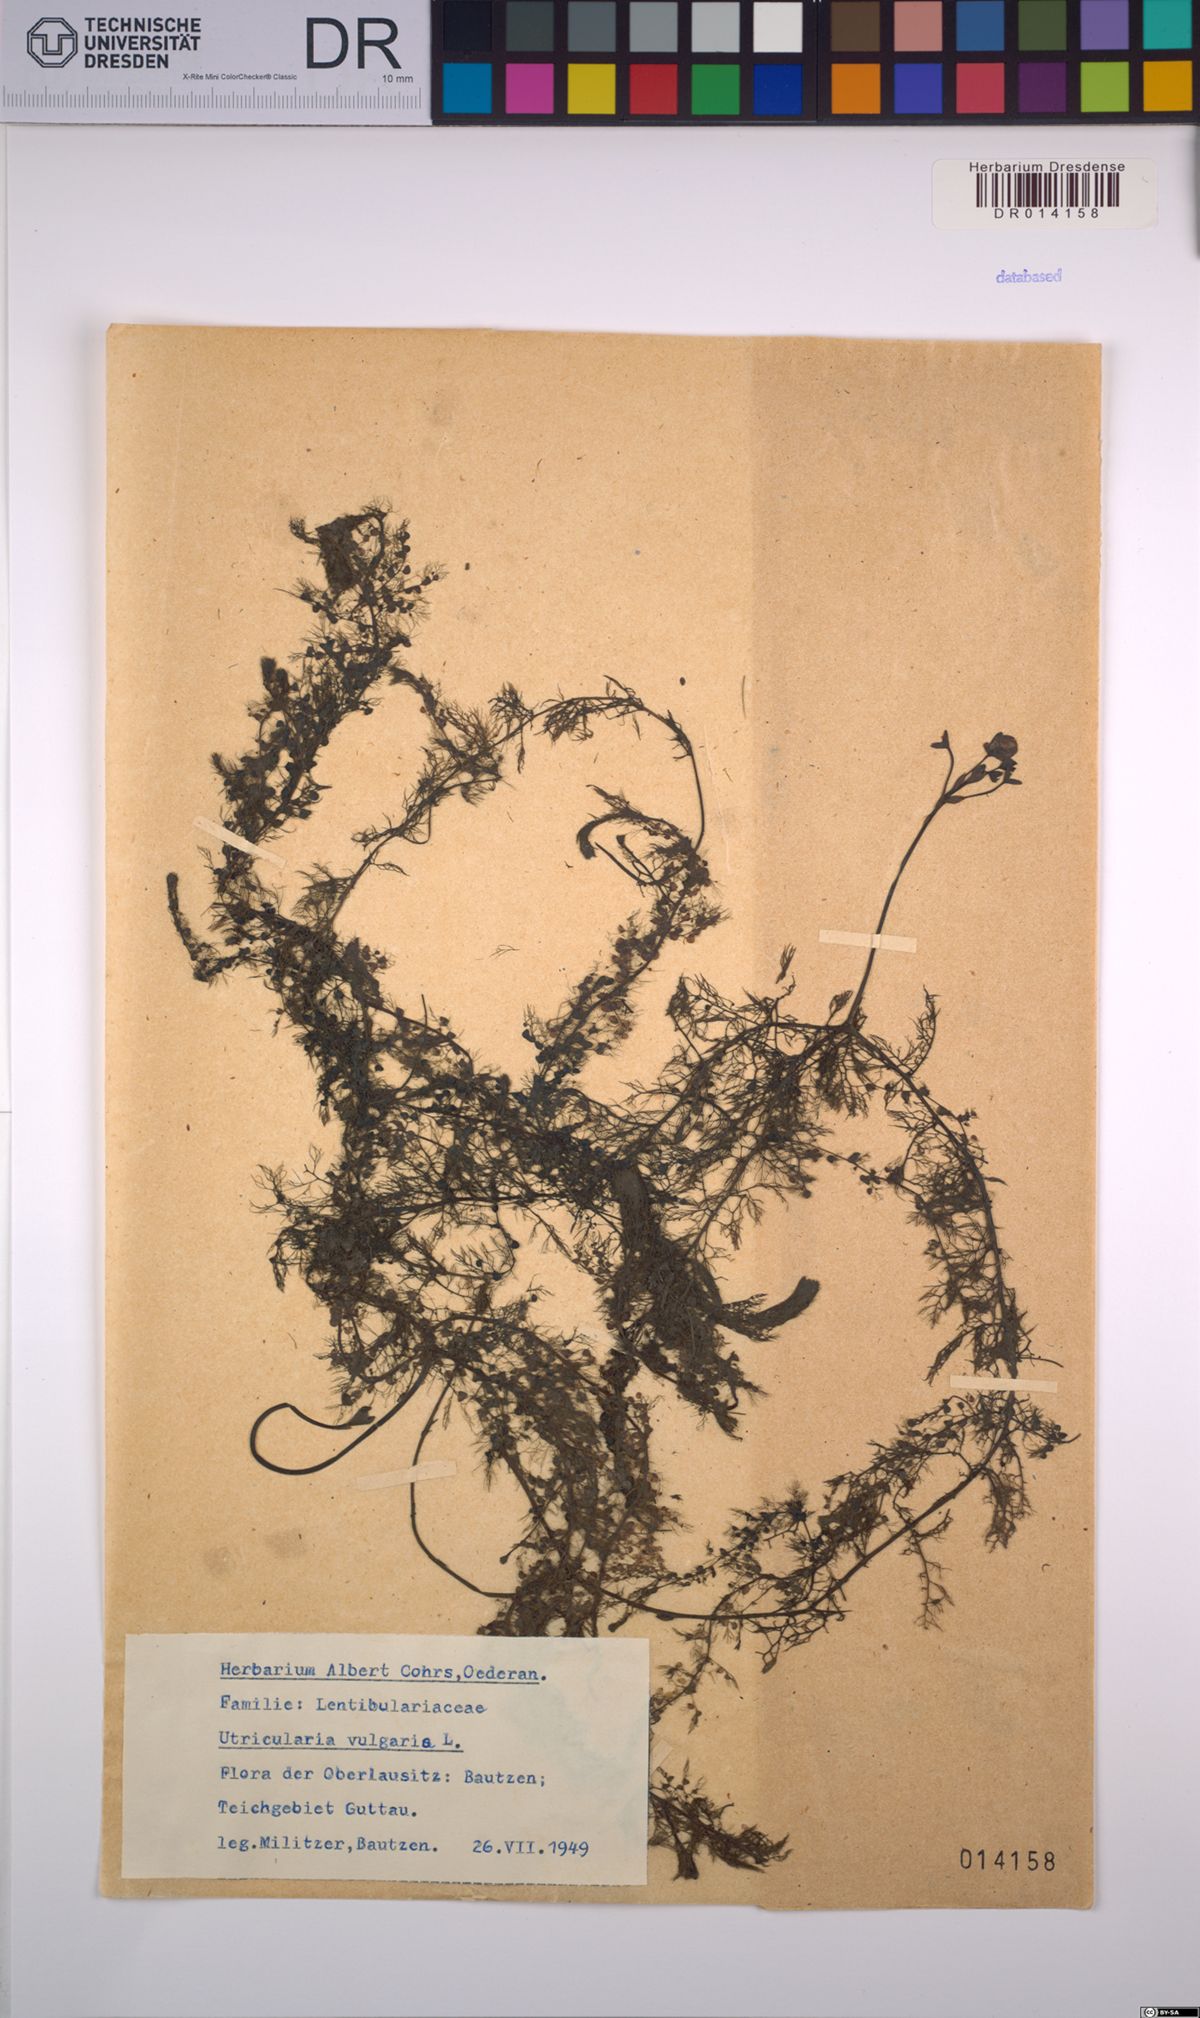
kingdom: Plantae
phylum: Tracheophyta
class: Magnoliopsida
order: Lamiales
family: Lentibulariaceae
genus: Utricularia
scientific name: Utricularia vulgaris
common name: Greater bladderwort
